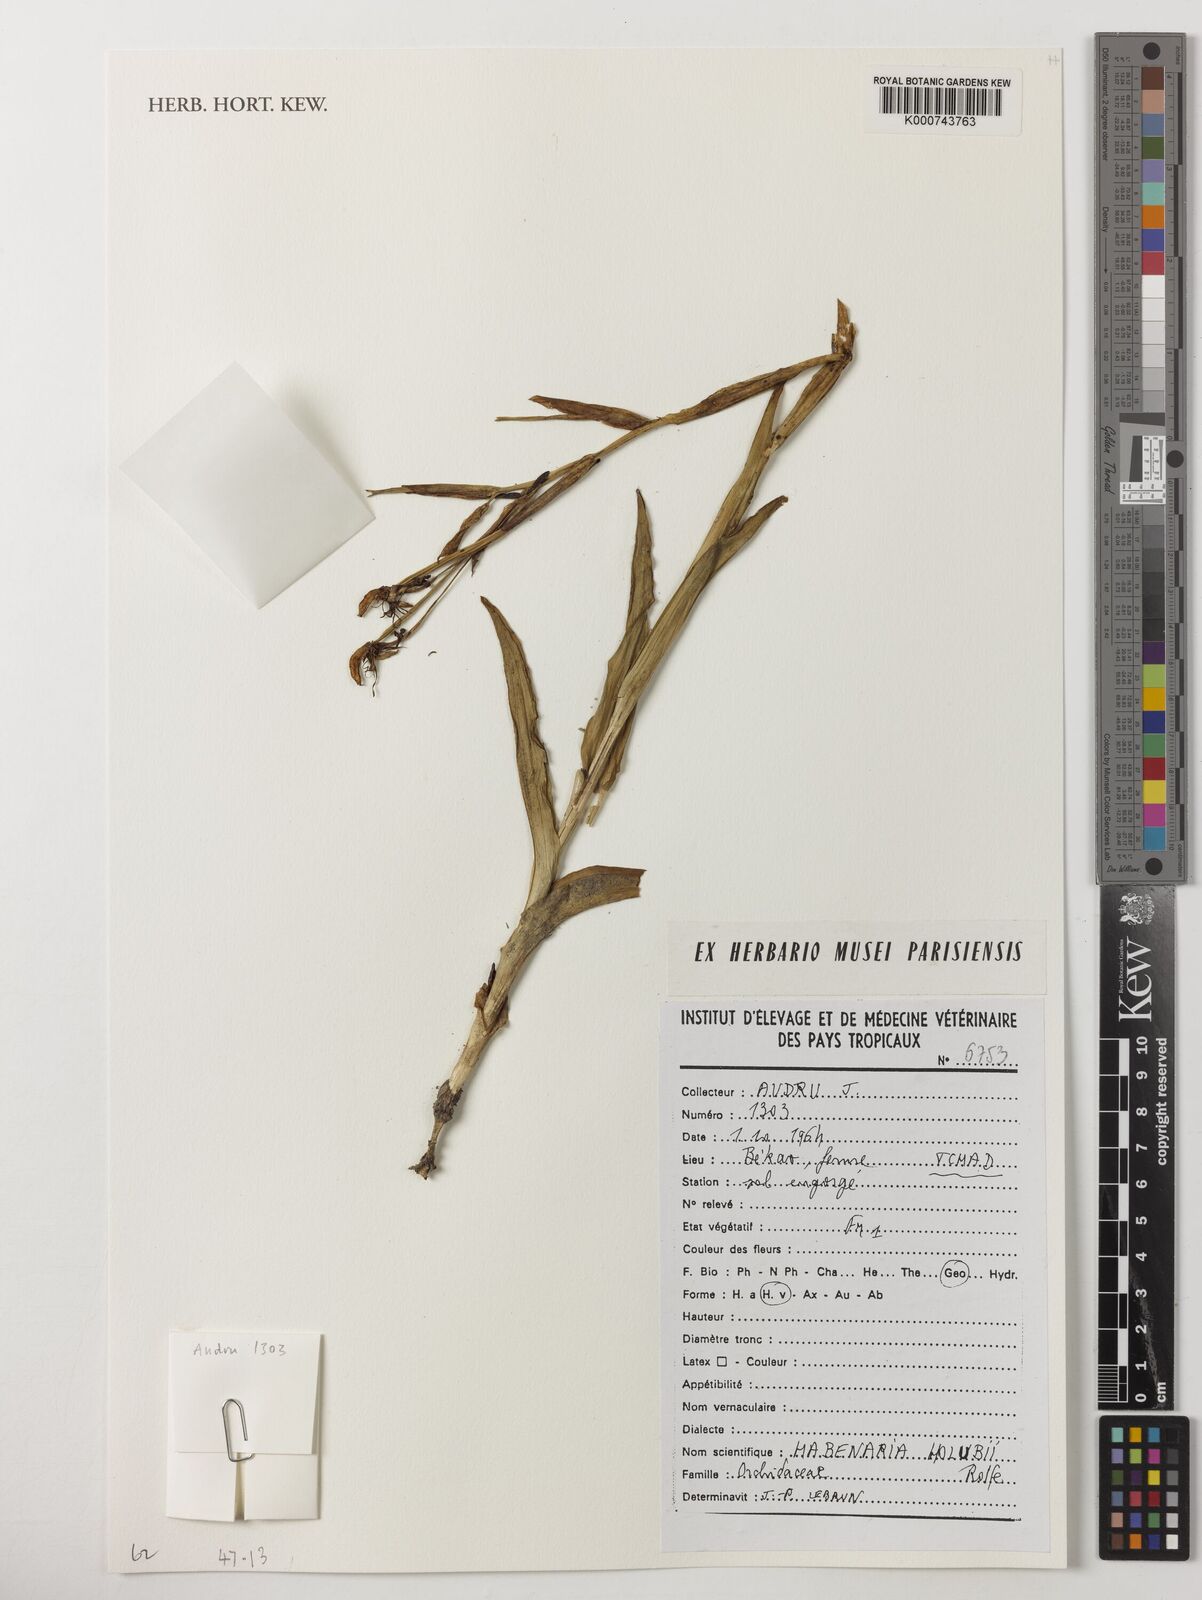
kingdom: Plantae
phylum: Tracheophyta
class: Liliopsida
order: Asparagales
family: Orchidaceae
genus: Habenaria
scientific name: Habenaria holubii
